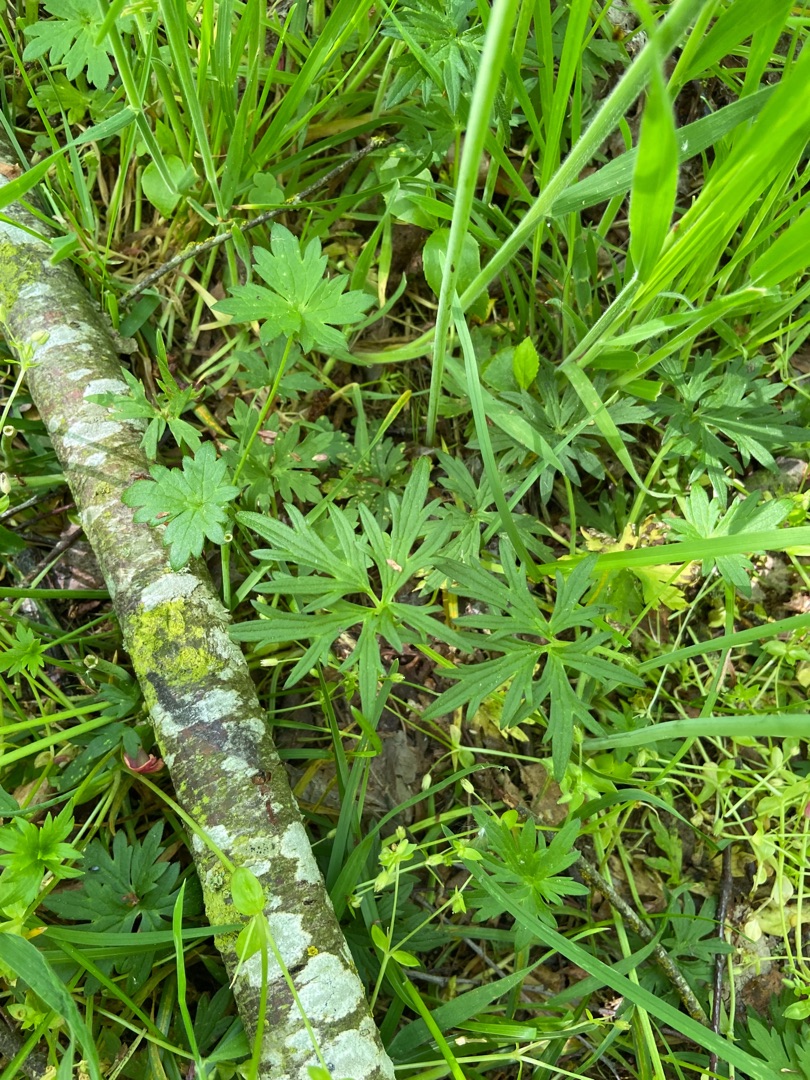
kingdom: Plantae
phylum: Tracheophyta
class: Magnoliopsida
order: Ranunculales
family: Ranunculaceae
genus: Ranunculus
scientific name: Ranunculus acris
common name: Bidende ranunkel
